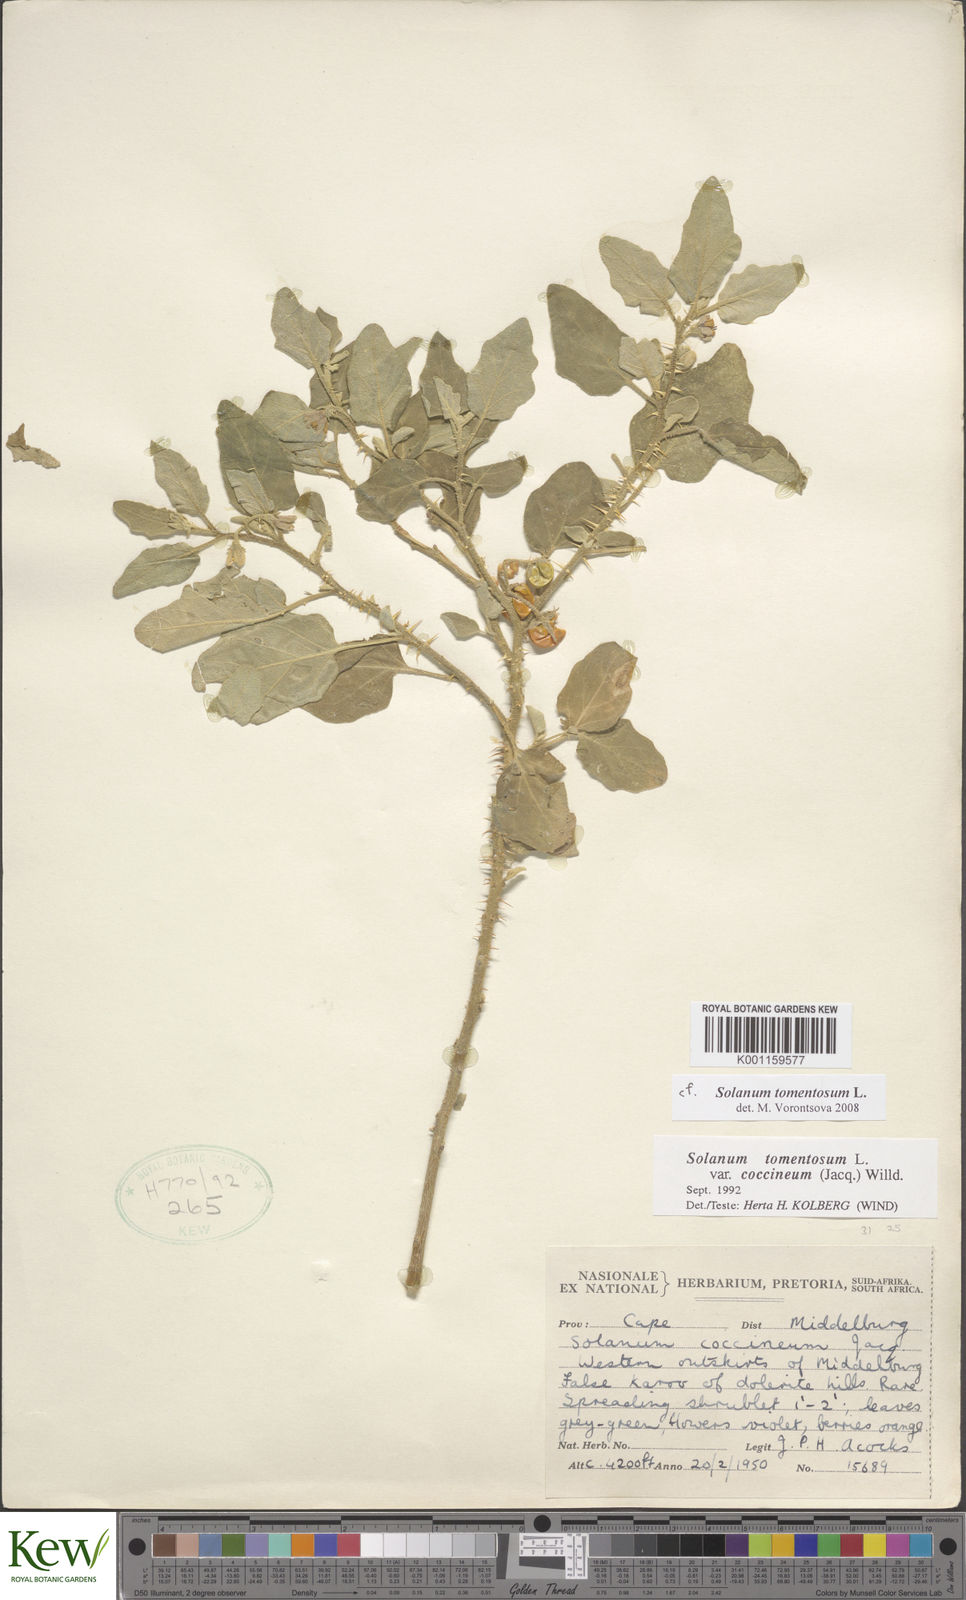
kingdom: Plantae
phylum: Tracheophyta
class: Magnoliopsida
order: Solanales
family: Solanaceae
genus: Solanum
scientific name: Solanum tomentosum
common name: Wild aubergine
